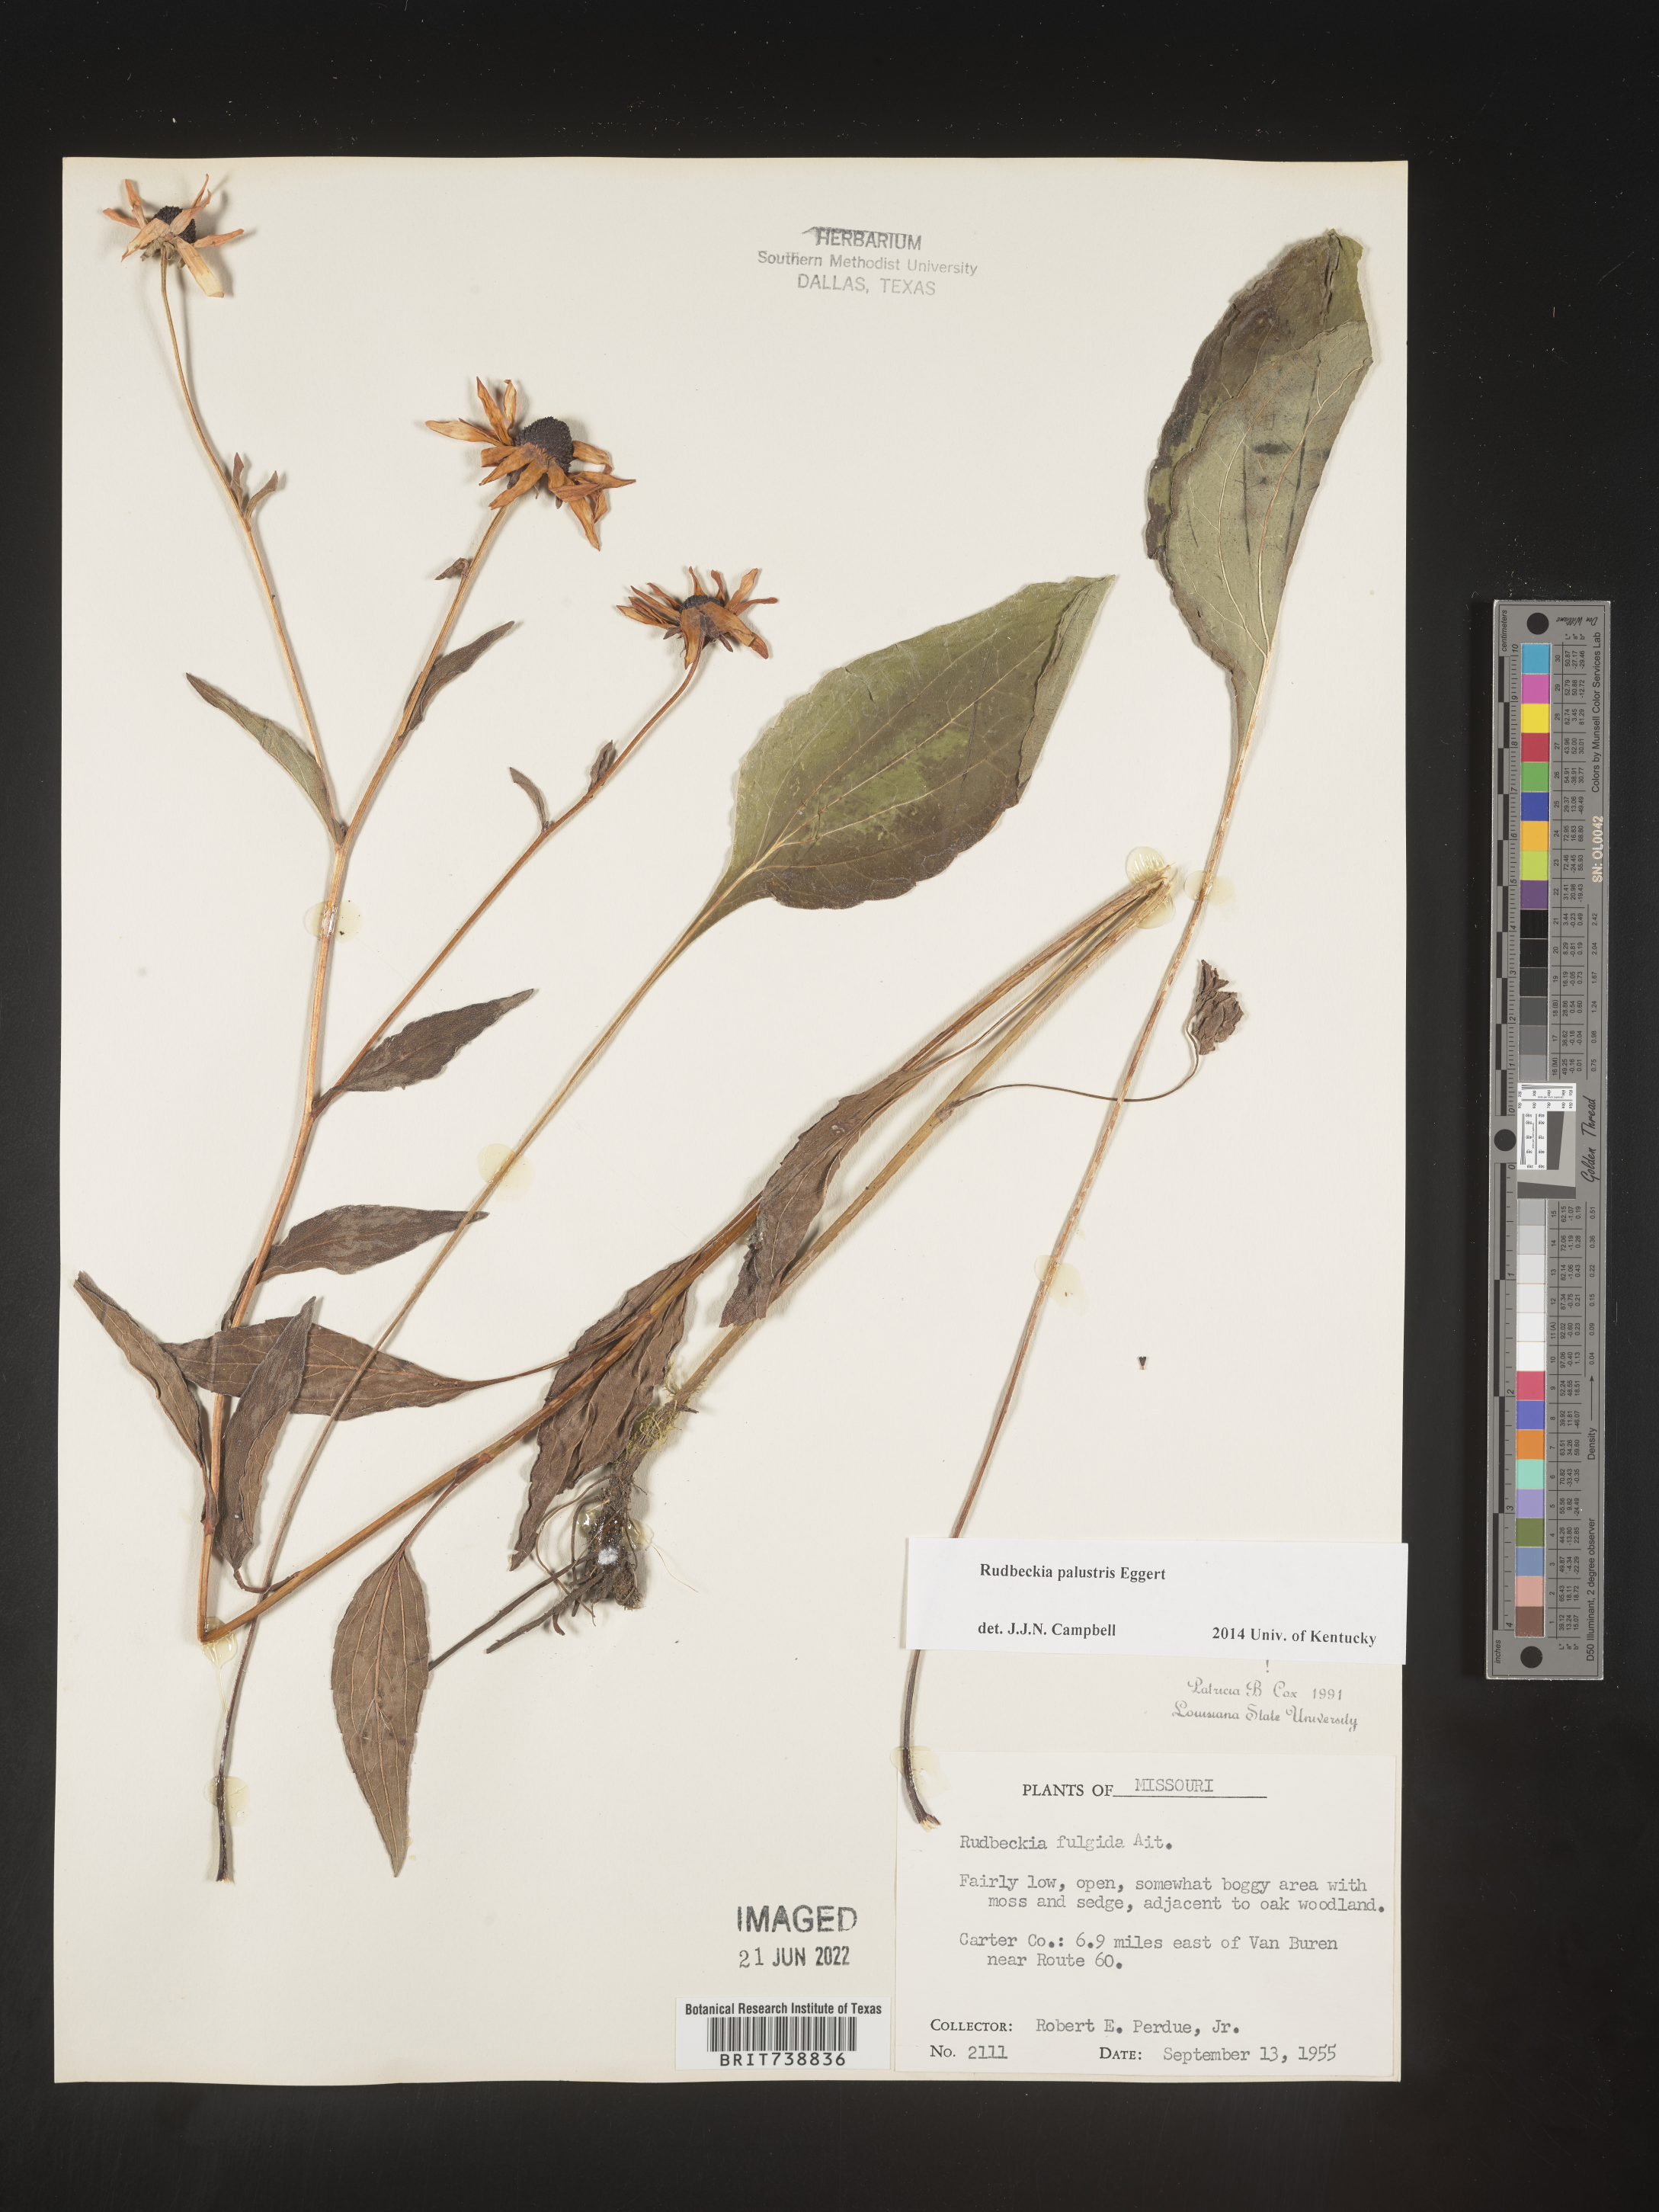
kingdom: Plantae
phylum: Tracheophyta
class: Magnoliopsida
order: Asterales
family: Asteraceae
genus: Rudbeckia
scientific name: Rudbeckia fulgida
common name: Perennial coneflower
